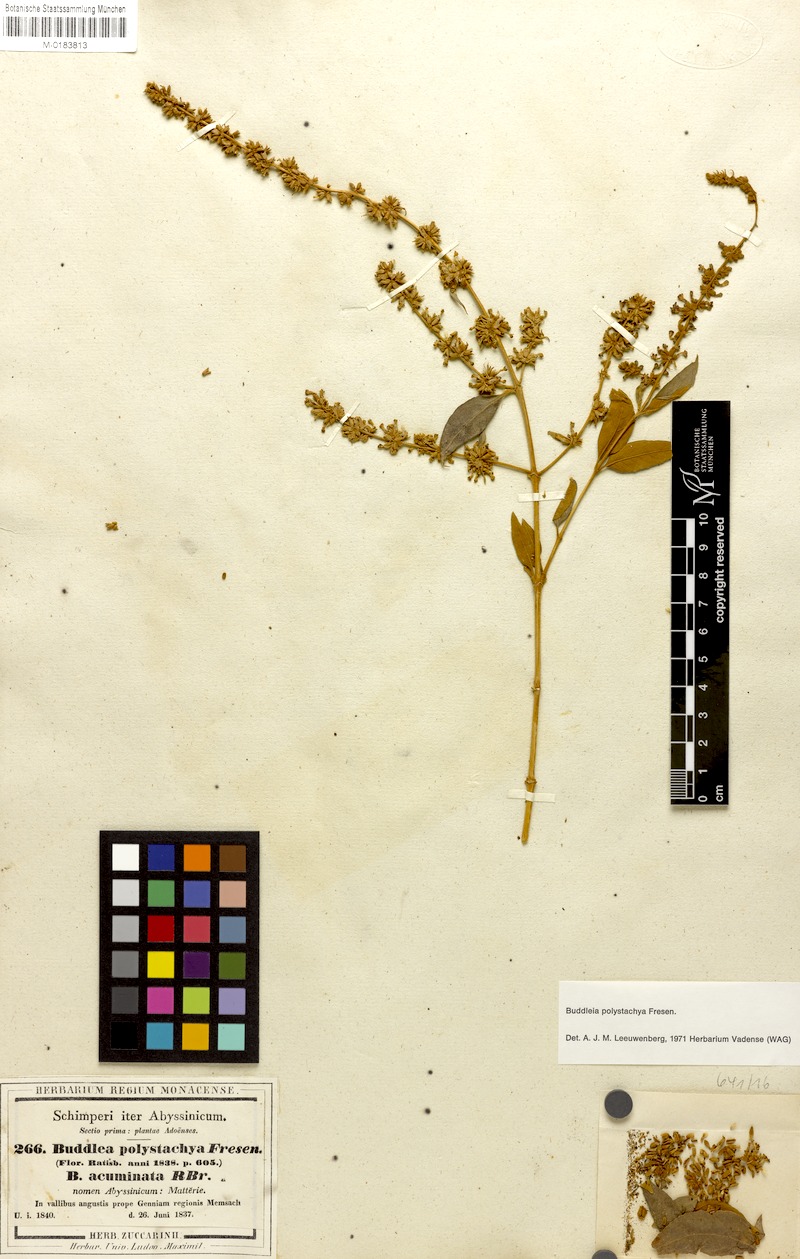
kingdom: Plantae
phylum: Tracheophyta
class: Magnoliopsida
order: Lamiales
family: Scrophulariaceae
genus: Buddleja
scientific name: Buddleja polystachya
